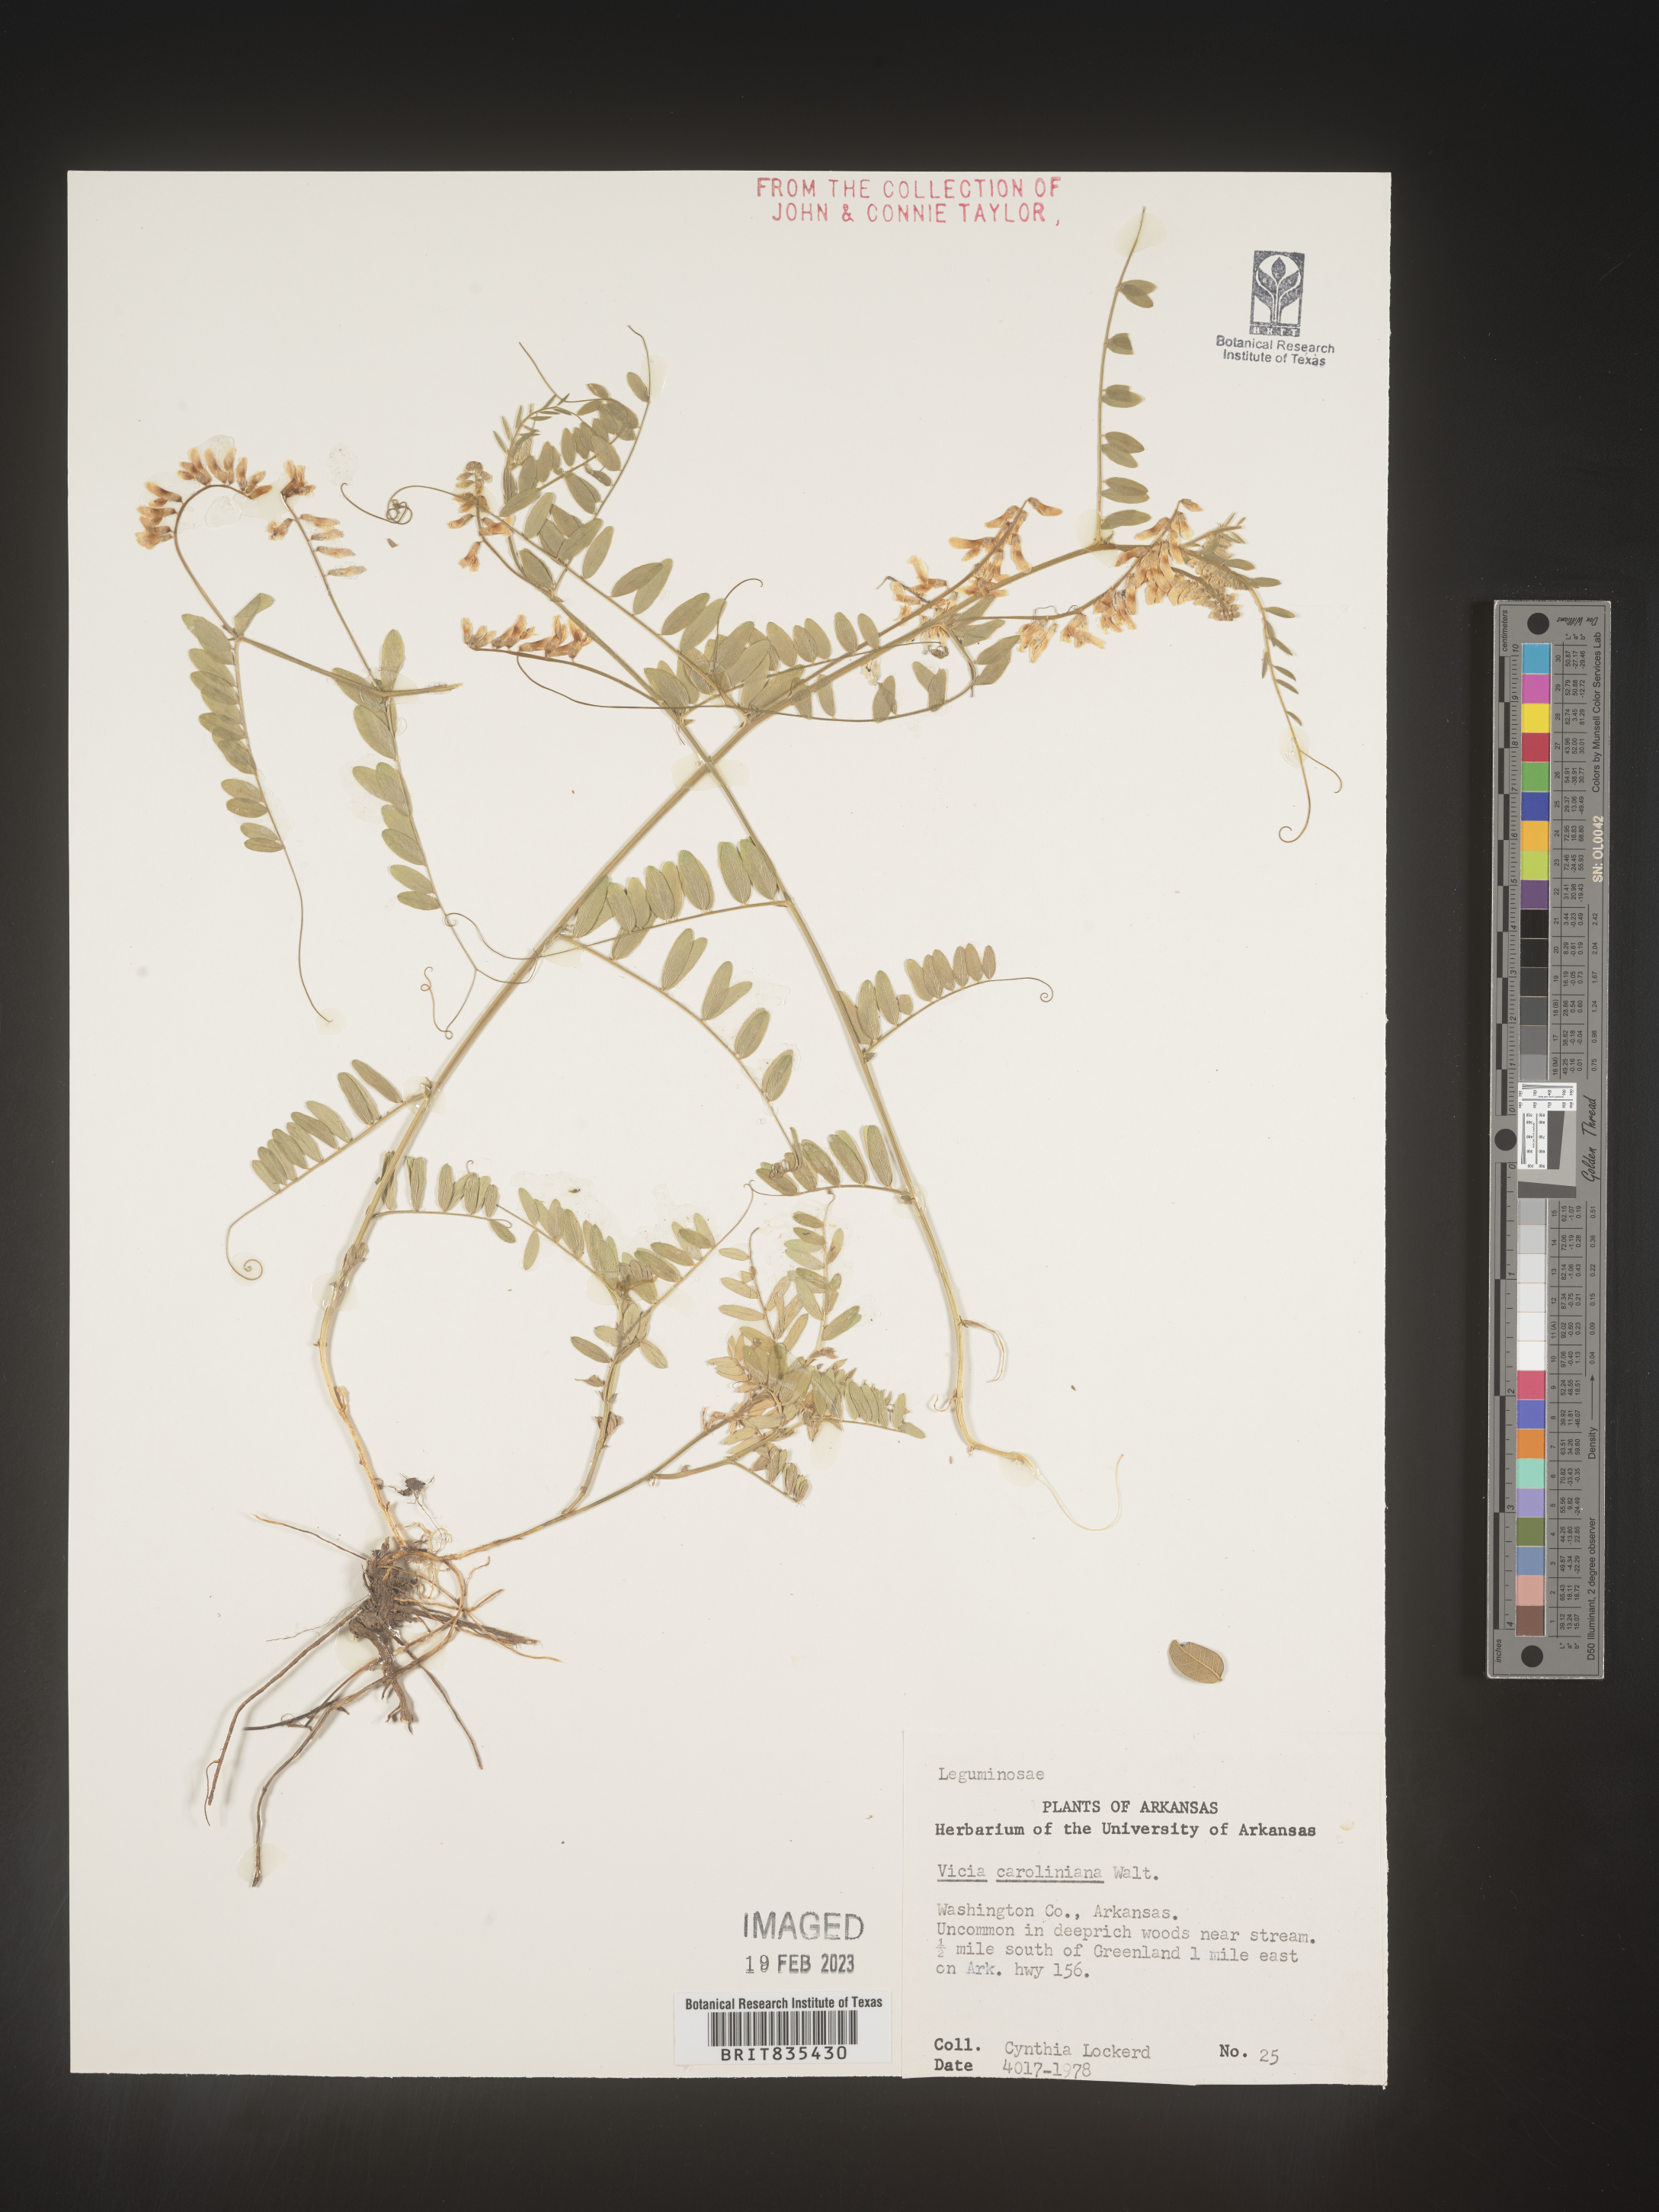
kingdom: Plantae
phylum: Tracheophyta
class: Magnoliopsida
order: Fabales
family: Fabaceae
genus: Vicia
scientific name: Vicia caroliniana
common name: Carolina vetch
